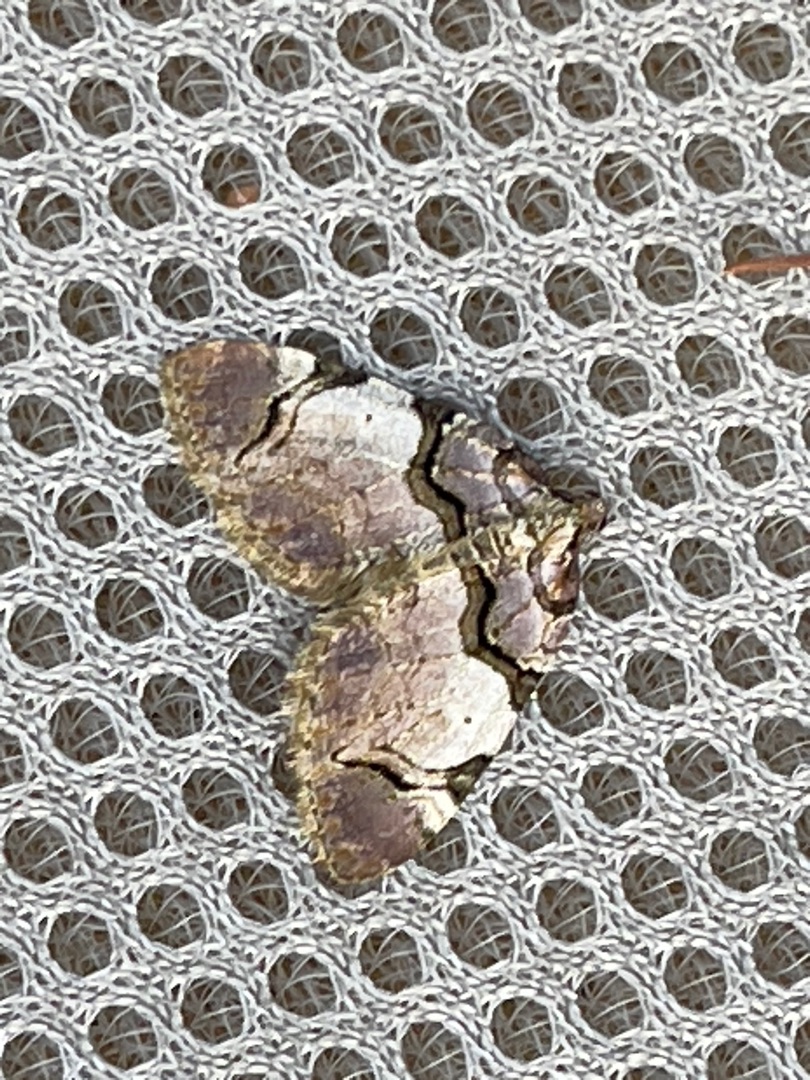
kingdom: Animalia
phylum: Arthropoda
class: Insecta
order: Lepidoptera
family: Geometridae
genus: Anticlea
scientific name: Anticlea derivata
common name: Rosen-bladmåler
